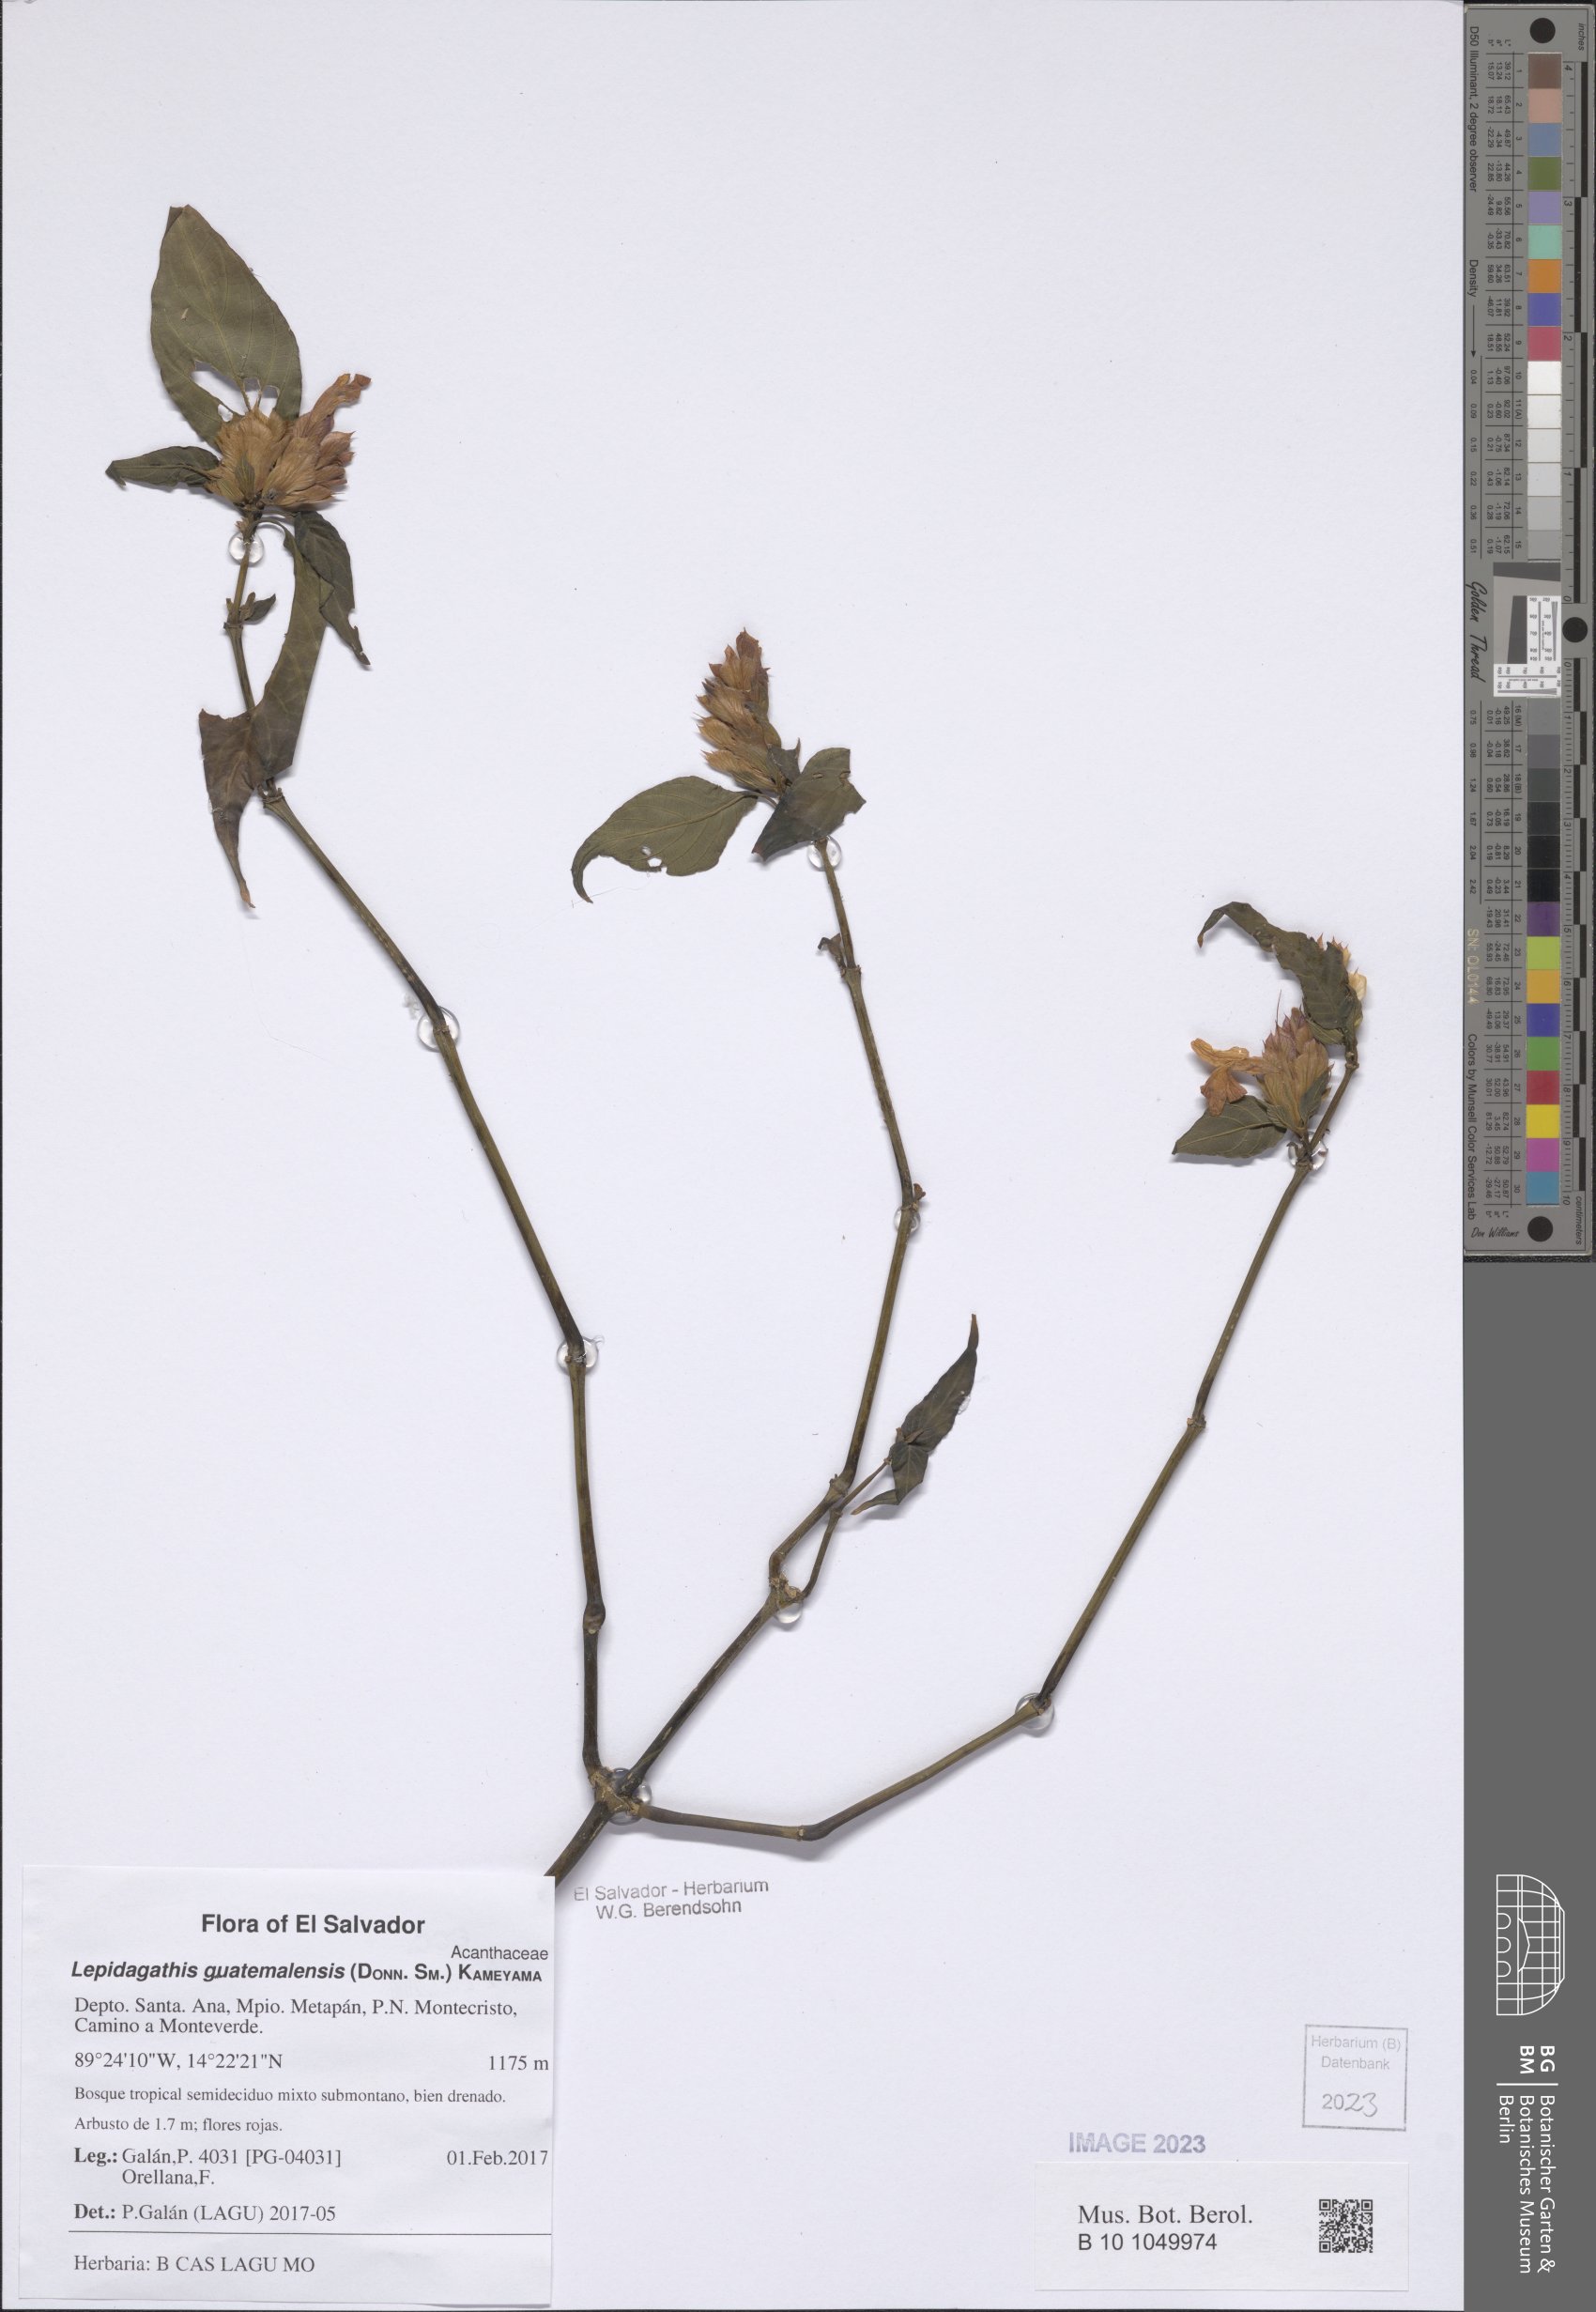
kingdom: Plantae
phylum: Tracheophyta
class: Magnoliopsida
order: Lamiales
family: Acanthaceae
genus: Lepidagathis
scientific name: Lepidagathis guatemalensis
